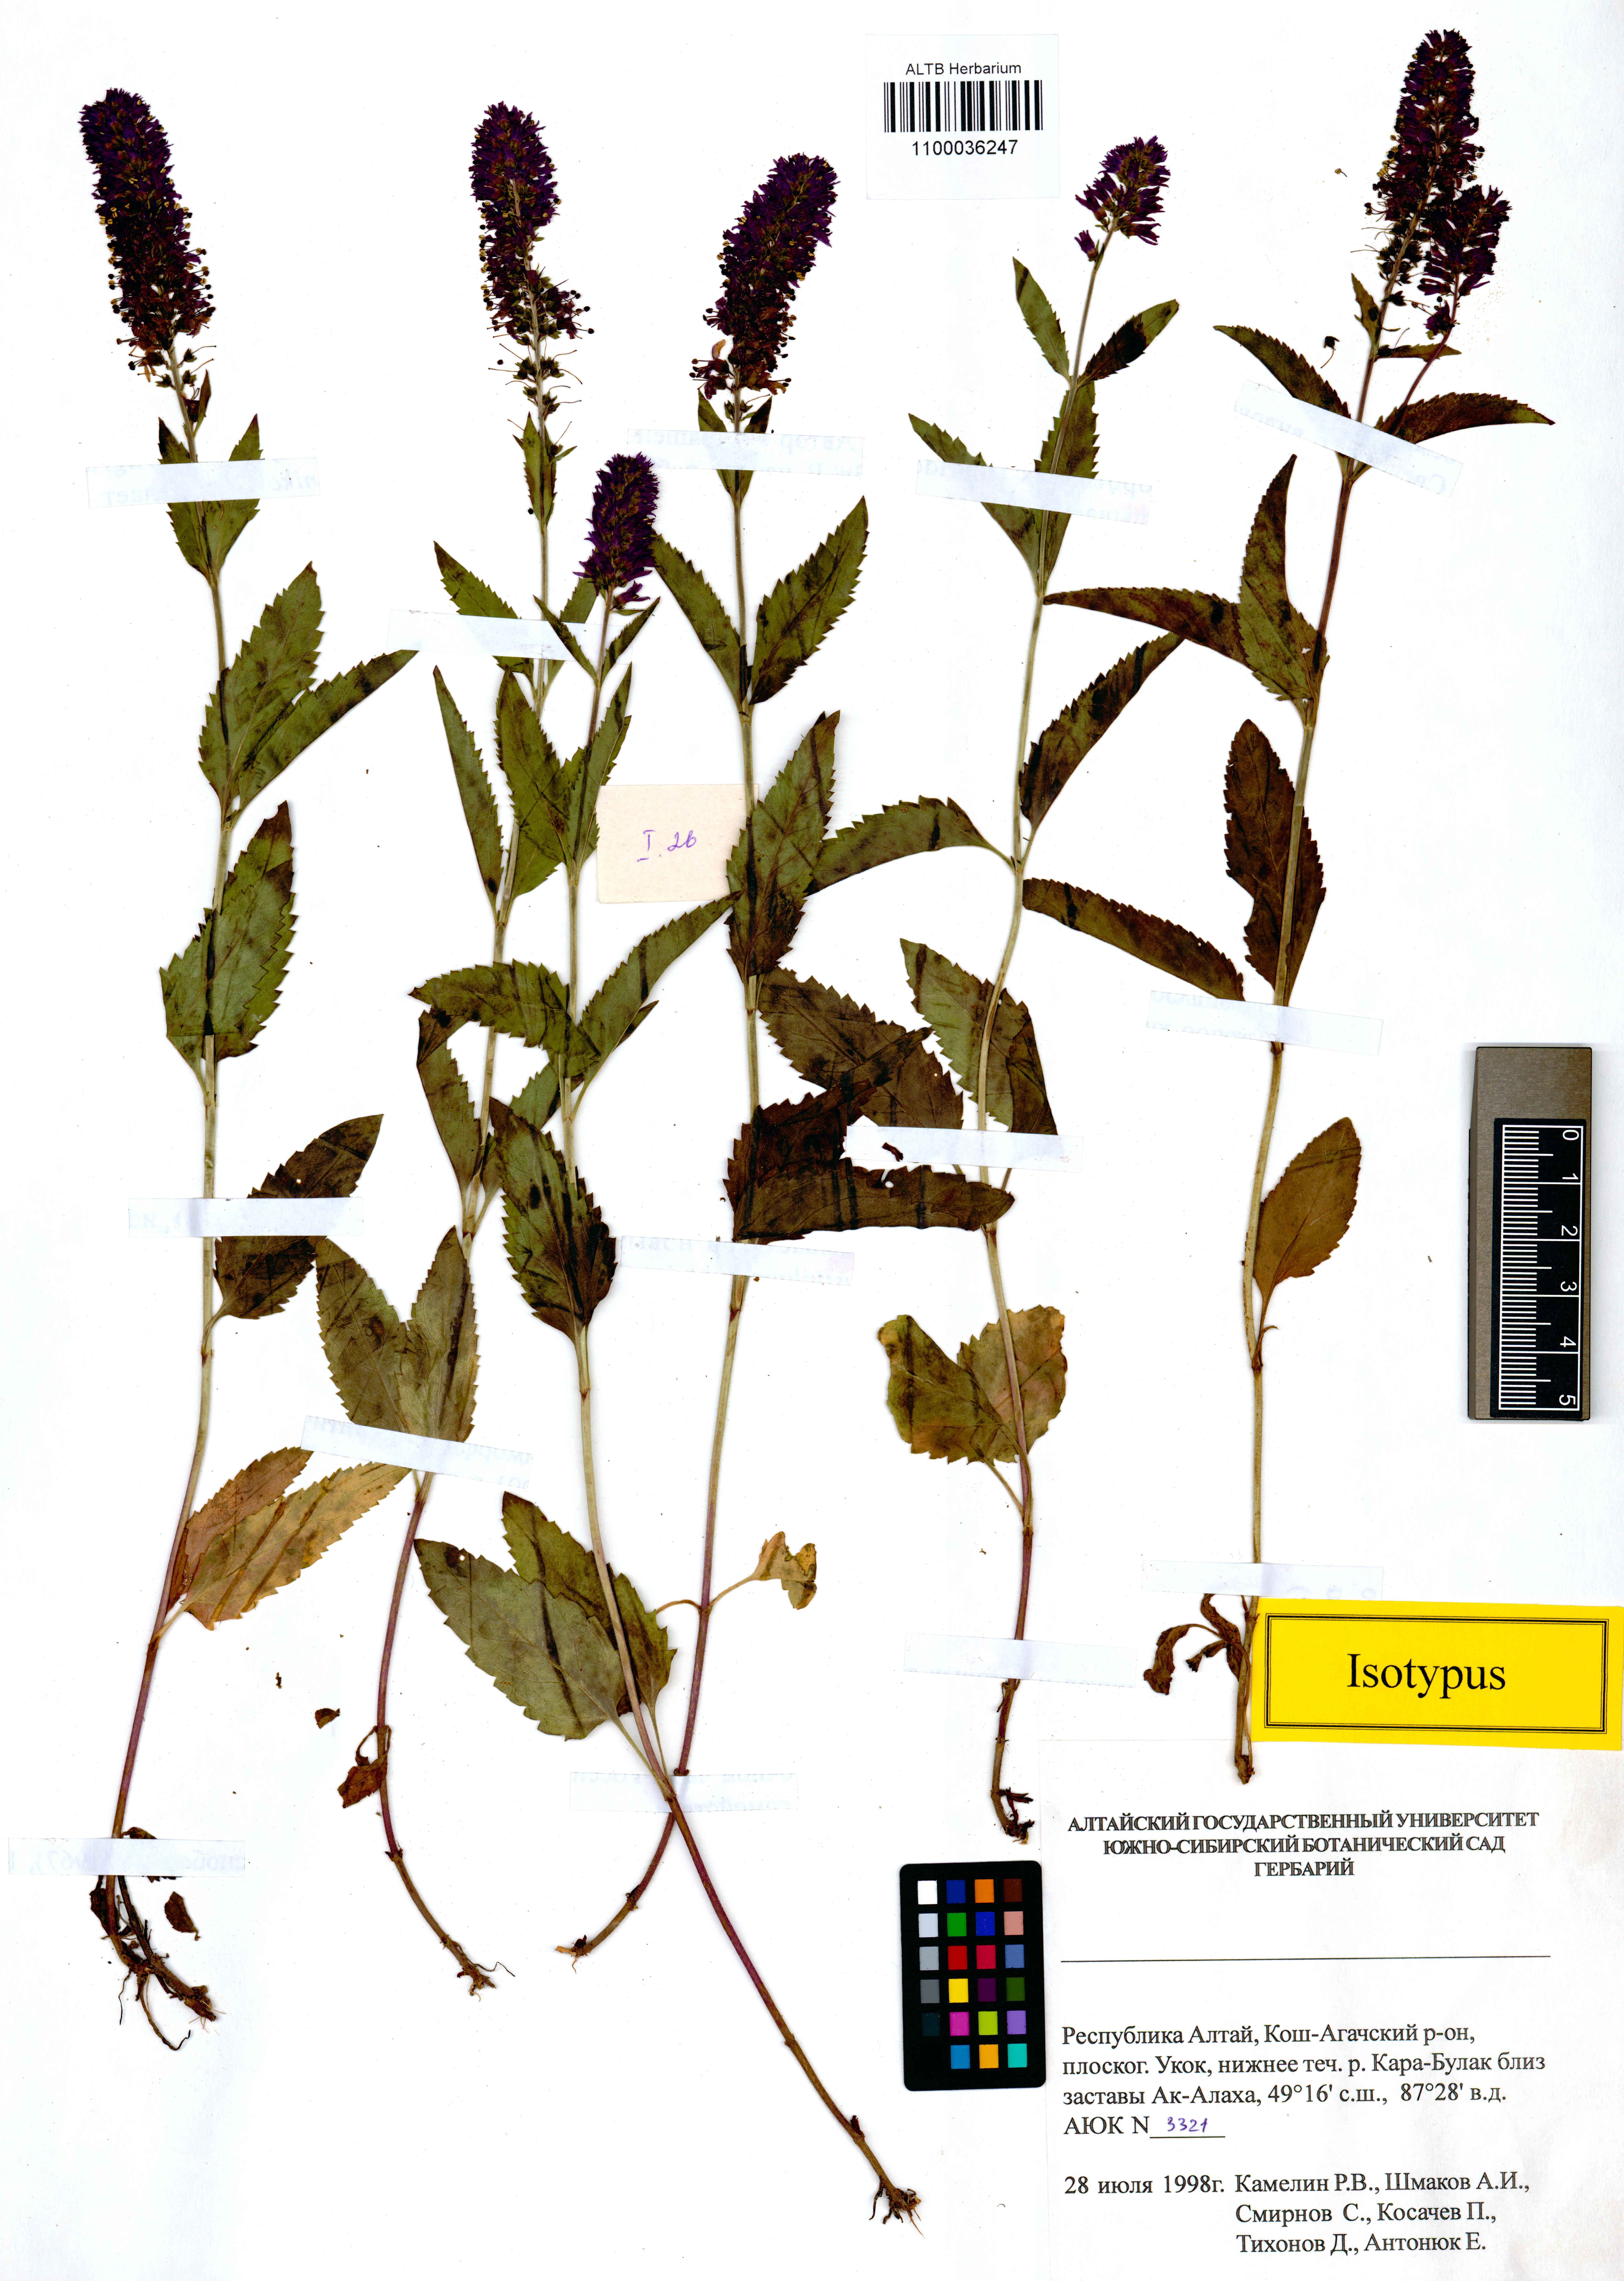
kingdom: Plantae
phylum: Tracheophyta
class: Magnoliopsida
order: Lamiales
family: Plantaginaceae
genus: Veronica
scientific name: Veronica schmakovii
